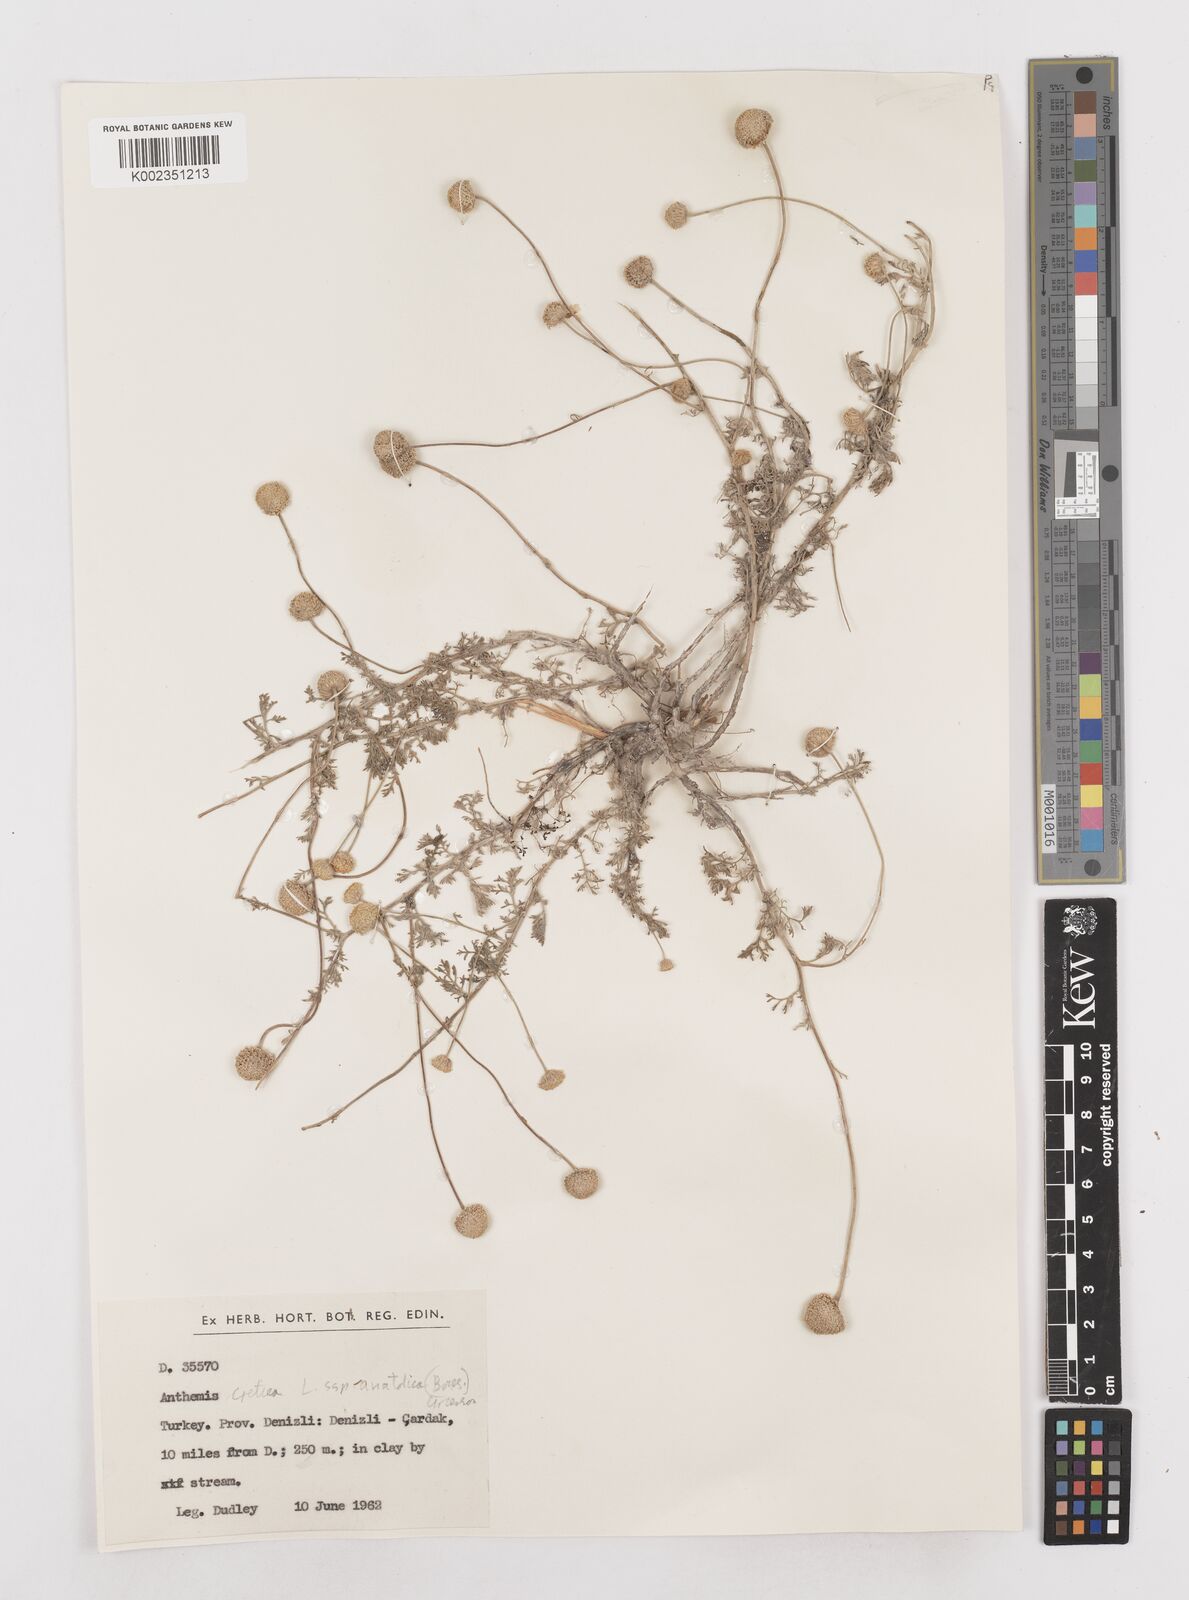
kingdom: Plantae
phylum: Tracheophyta
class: Magnoliopsida
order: Asterales
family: Asteraceae
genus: Anthemis
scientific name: Anthemis cretica
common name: Mountain dog-daisy
